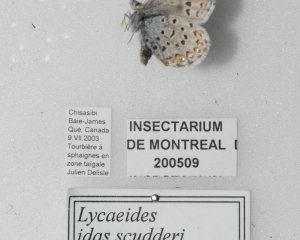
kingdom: Animalia
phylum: Arthropoda
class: Insecta
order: Lepidoptera
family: Lycaenidae
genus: Lycaeides
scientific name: Lycaeides idas
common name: Northern Blue
